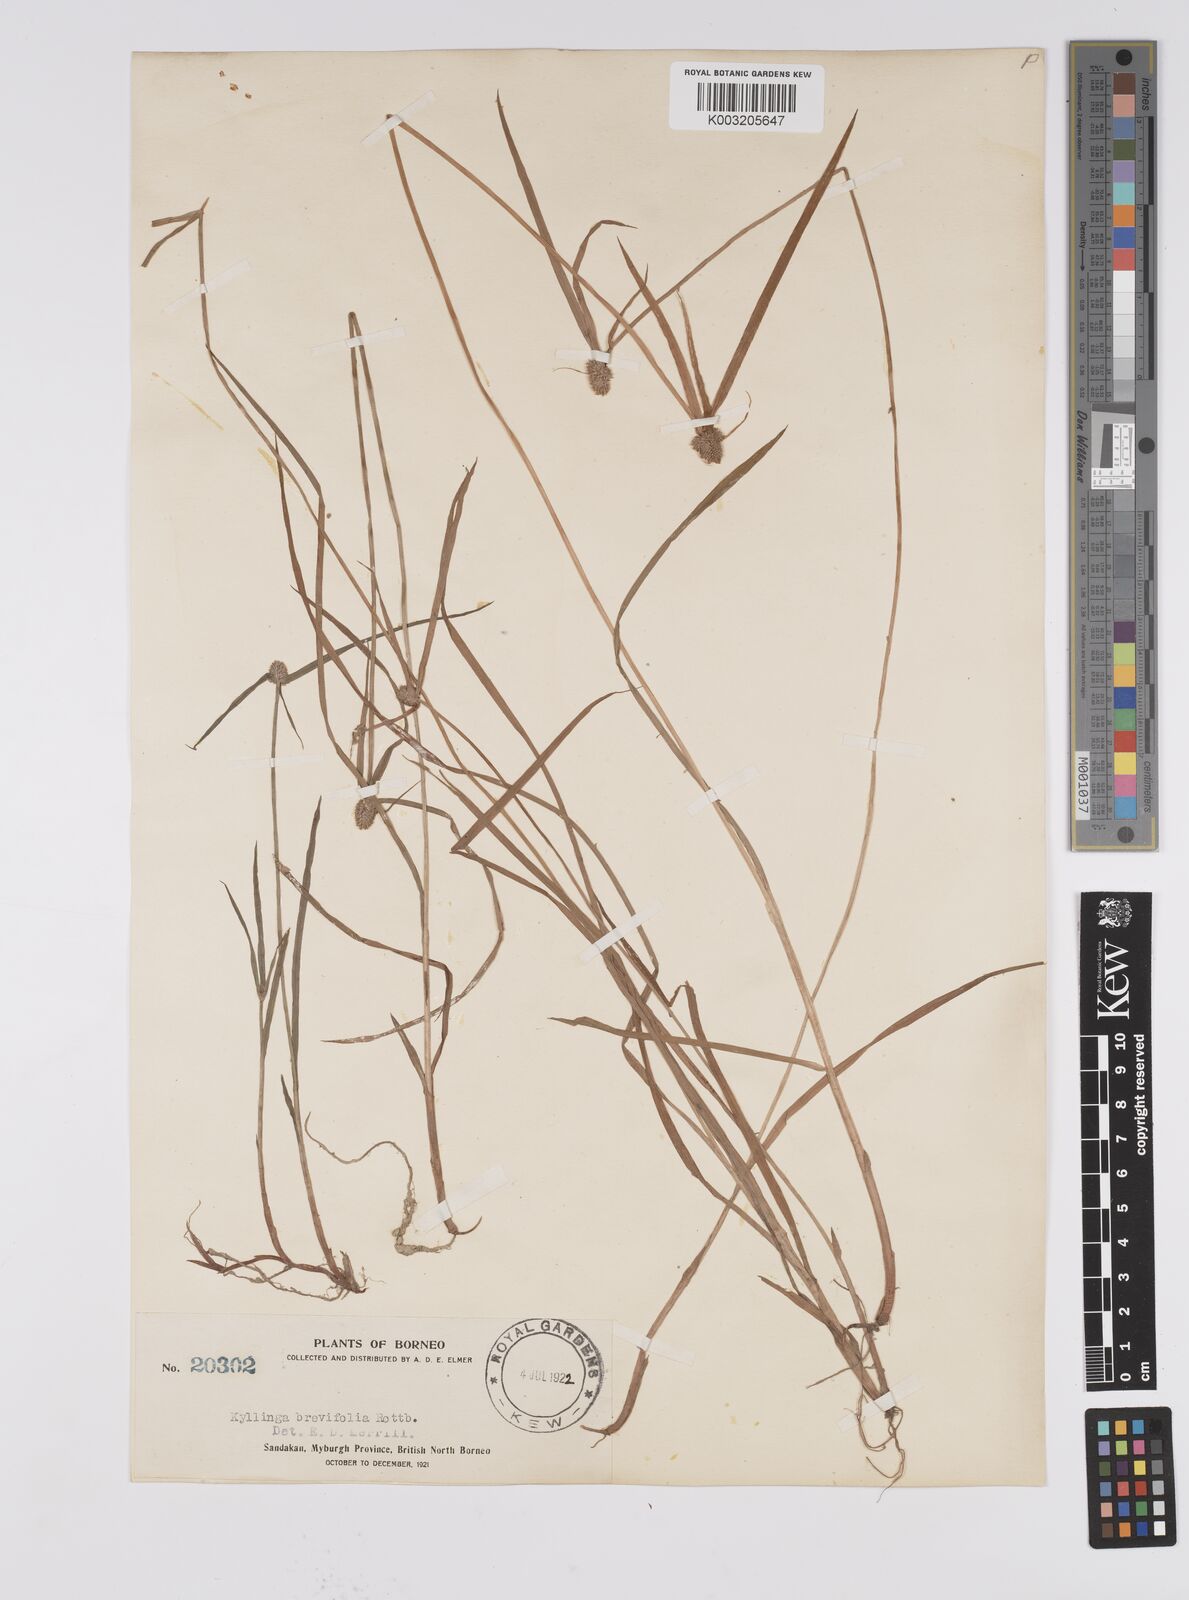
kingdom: Plantae
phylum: Tracheophyta
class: Liliopsida
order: Poales
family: Cyperaceae
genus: Cyperus
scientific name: Cyperus brevifolius
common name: Globe kyllinga
